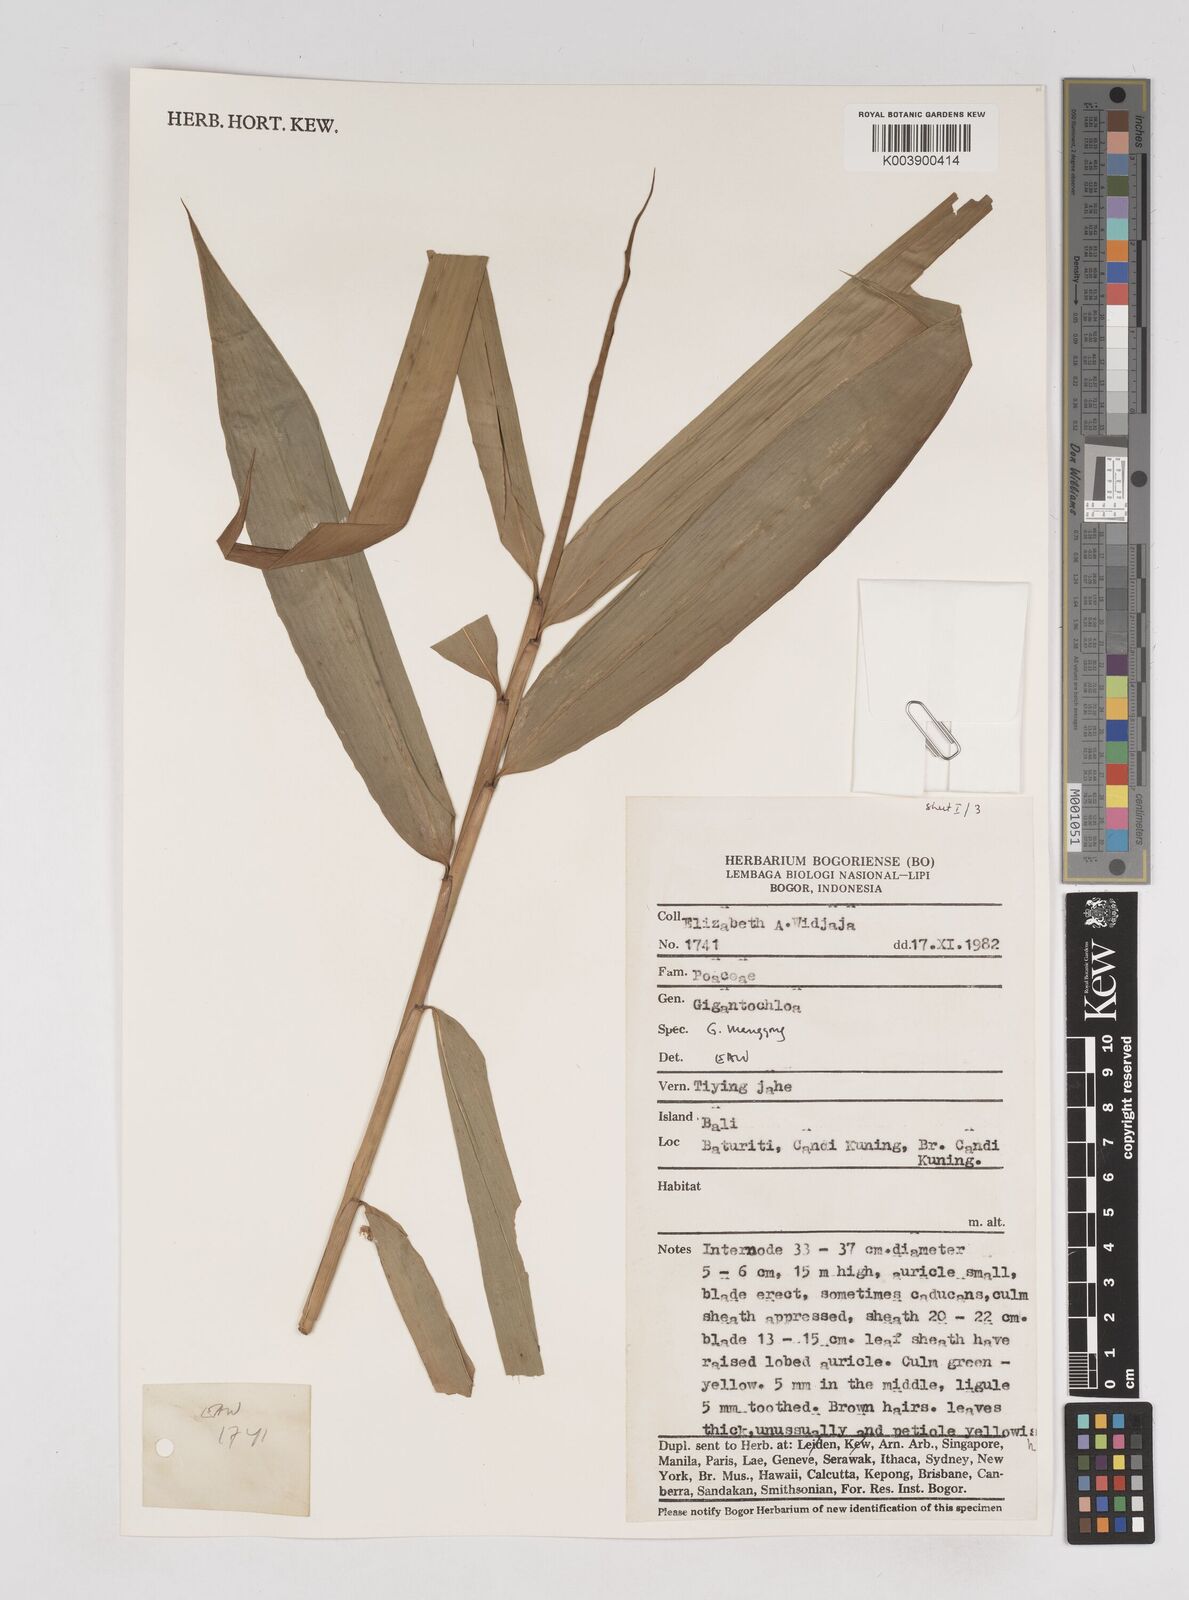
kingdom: Plantae
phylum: Tracheophyta
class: Liliopsida
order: Poales
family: Poaceae
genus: Gigantochloa
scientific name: Gigantochloa manggong
